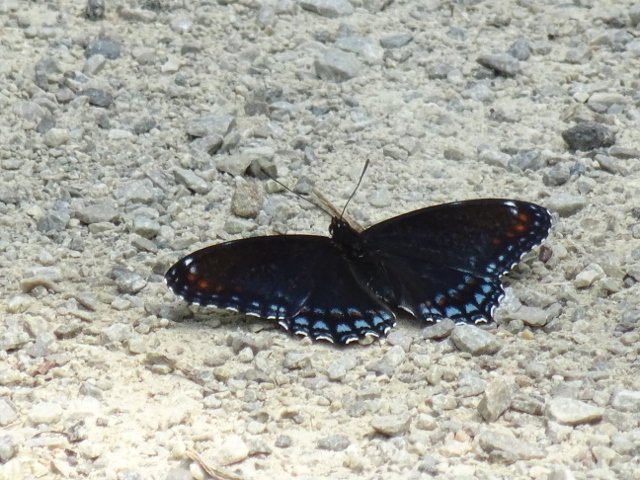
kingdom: Animalia
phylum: Arthropoda
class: Insecta
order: Lepidoptera
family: Nymphalidae
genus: Limenitis
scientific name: Limenitis astyanax
